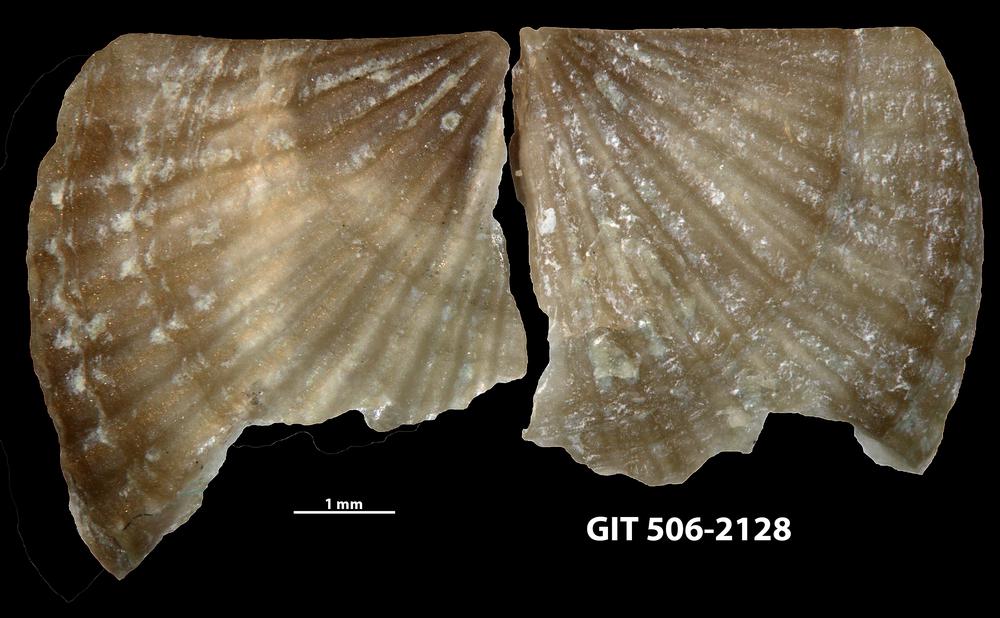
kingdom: Animalia
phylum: Brachiopoda
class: Rhynchonellata
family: Skenidiidae
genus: Skenidioides
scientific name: Skenidioides hymiri
